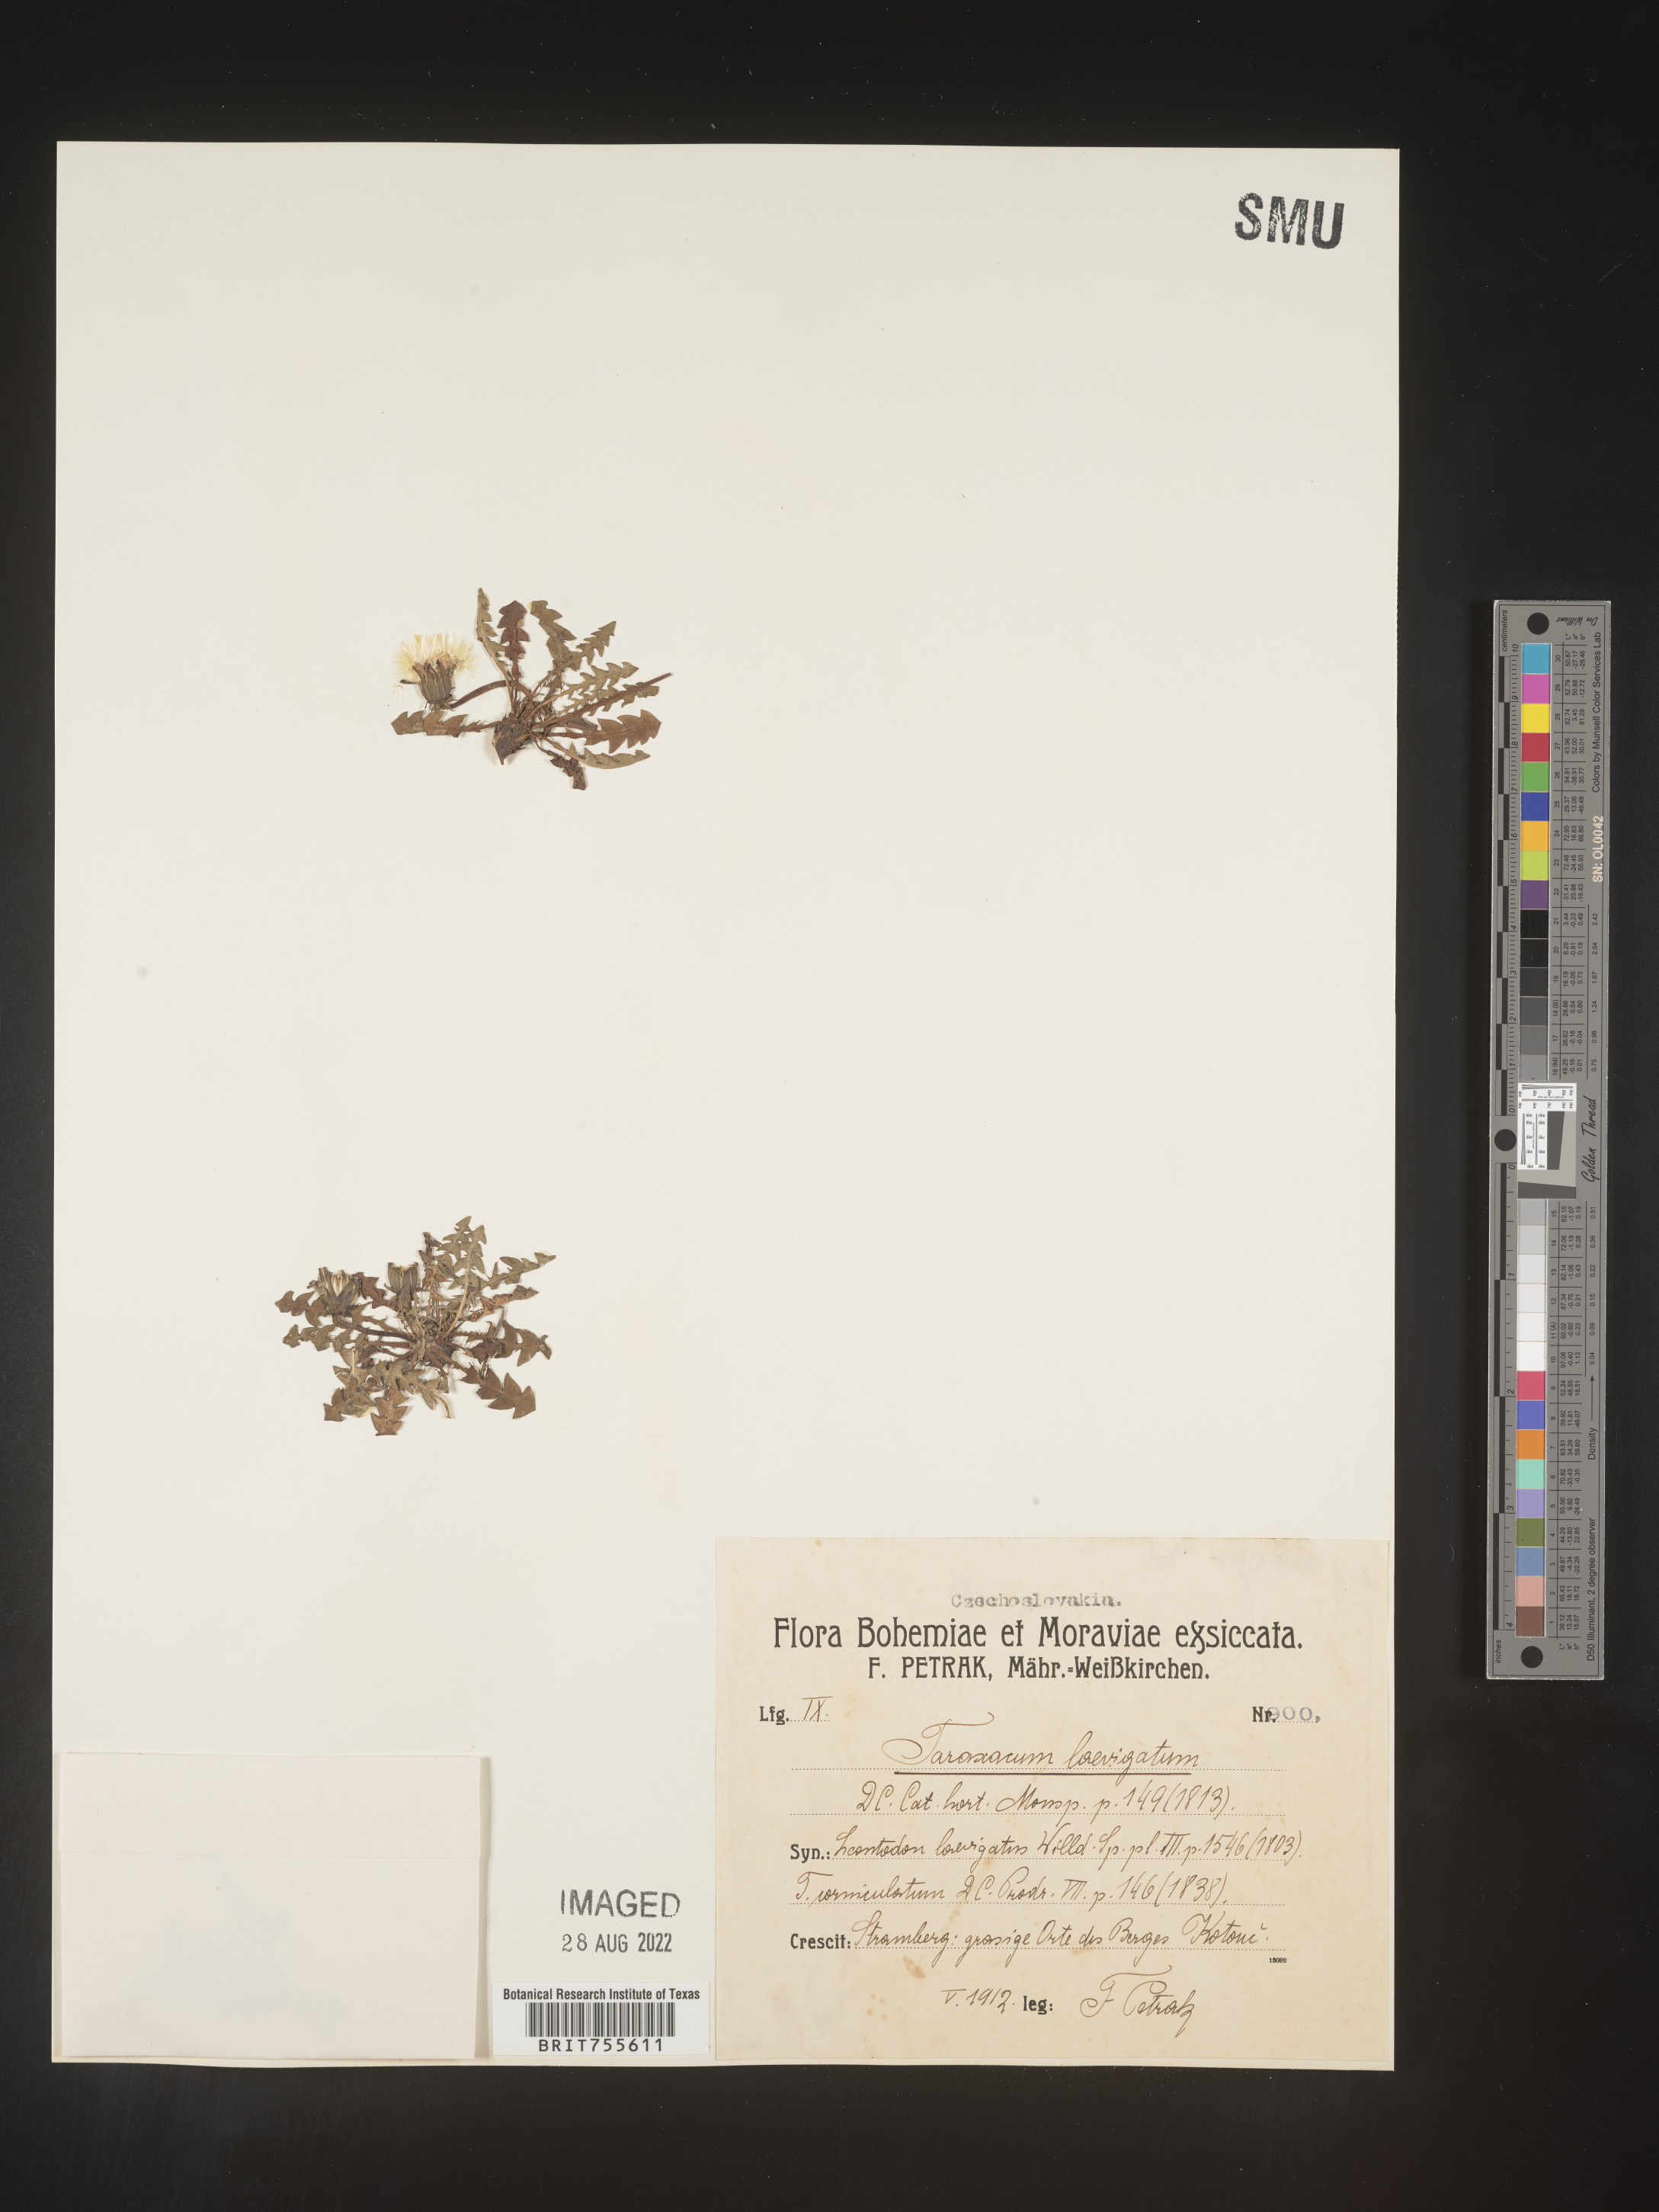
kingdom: Plantae
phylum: Tracheophyta
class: Magnoliopsida
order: Asterales
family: Asteraceae
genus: Taraxacum
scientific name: Taraxacum
